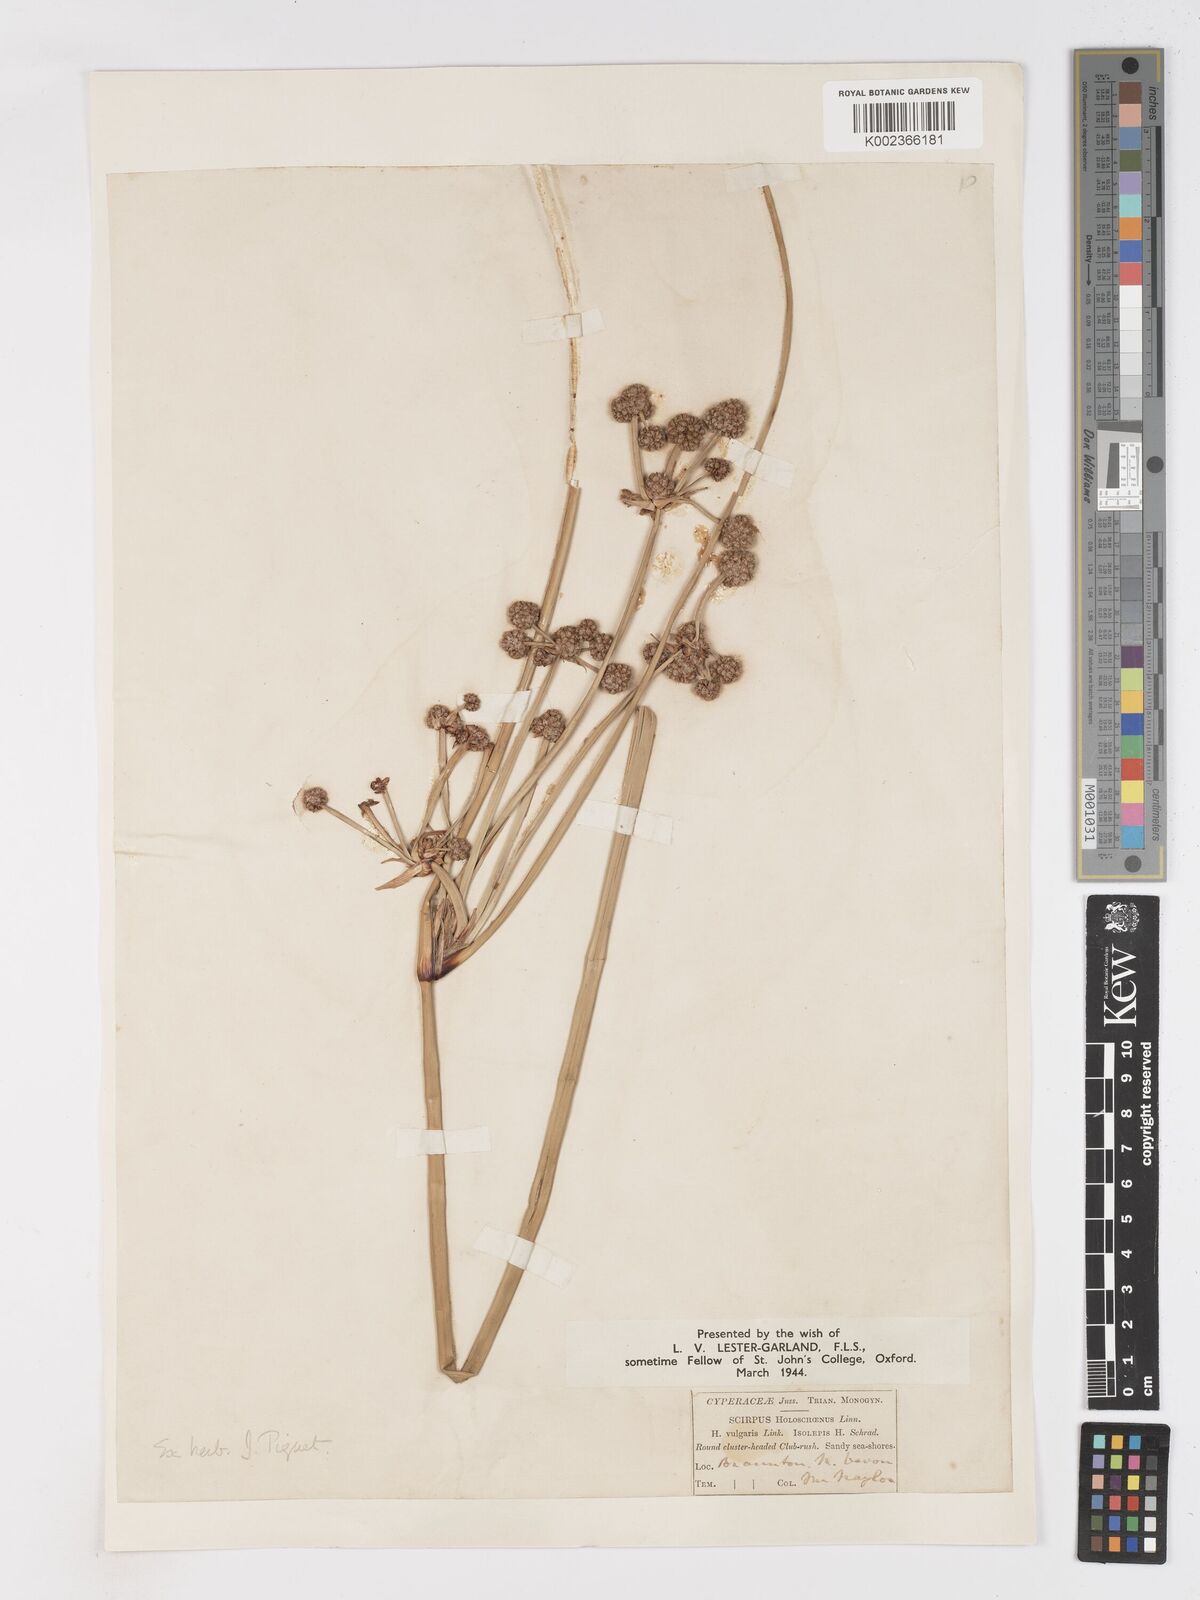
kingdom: Plantae
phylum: Tracheophyta
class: Liliopsida
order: Poales
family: Cyperaceae
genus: Scirpoides
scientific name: Scirpoides holoschoenus
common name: Round-headed club-rush
